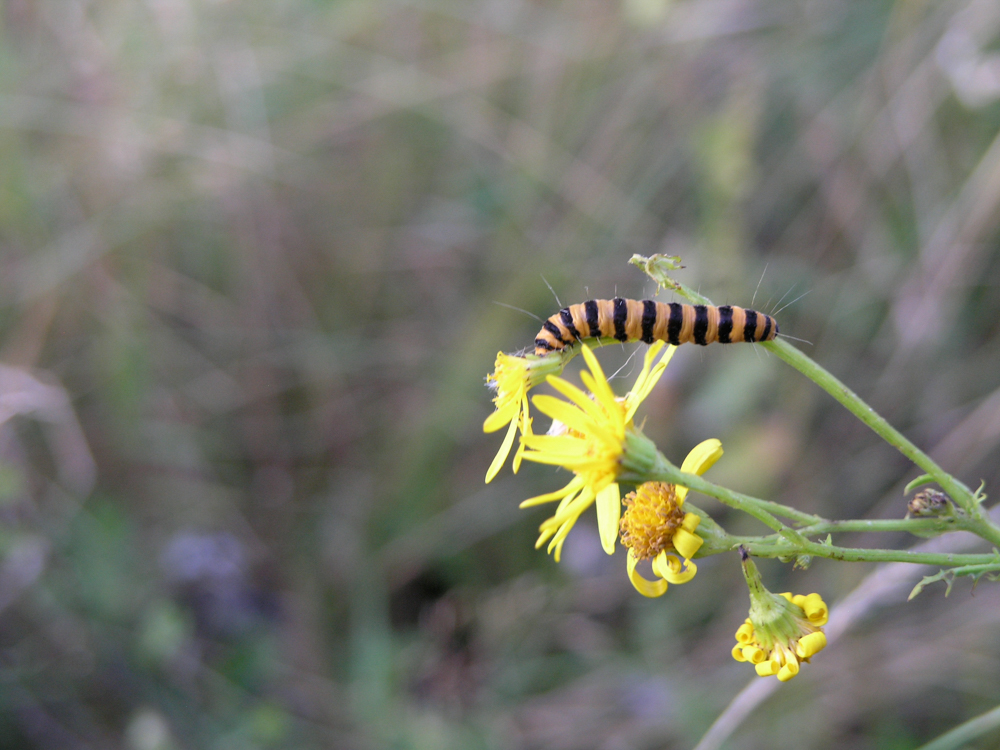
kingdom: Animalia
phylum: Arthropoda
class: Insecta
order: Lepidoptera
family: Erebidae
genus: Tyria
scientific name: Tyria jacobaeae
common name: Cinnabar
